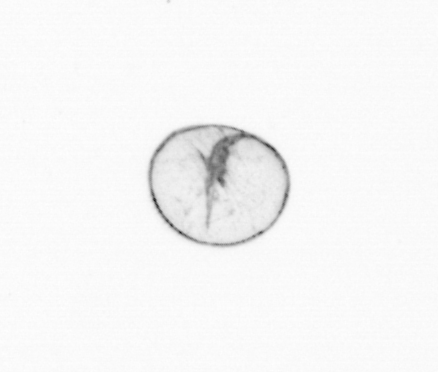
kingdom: Chromista
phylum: Myzozoa
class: Dinophyceae
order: Noctilucales
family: Noctilucaceae
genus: Noctiluca
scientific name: Noctiluca scintillans
